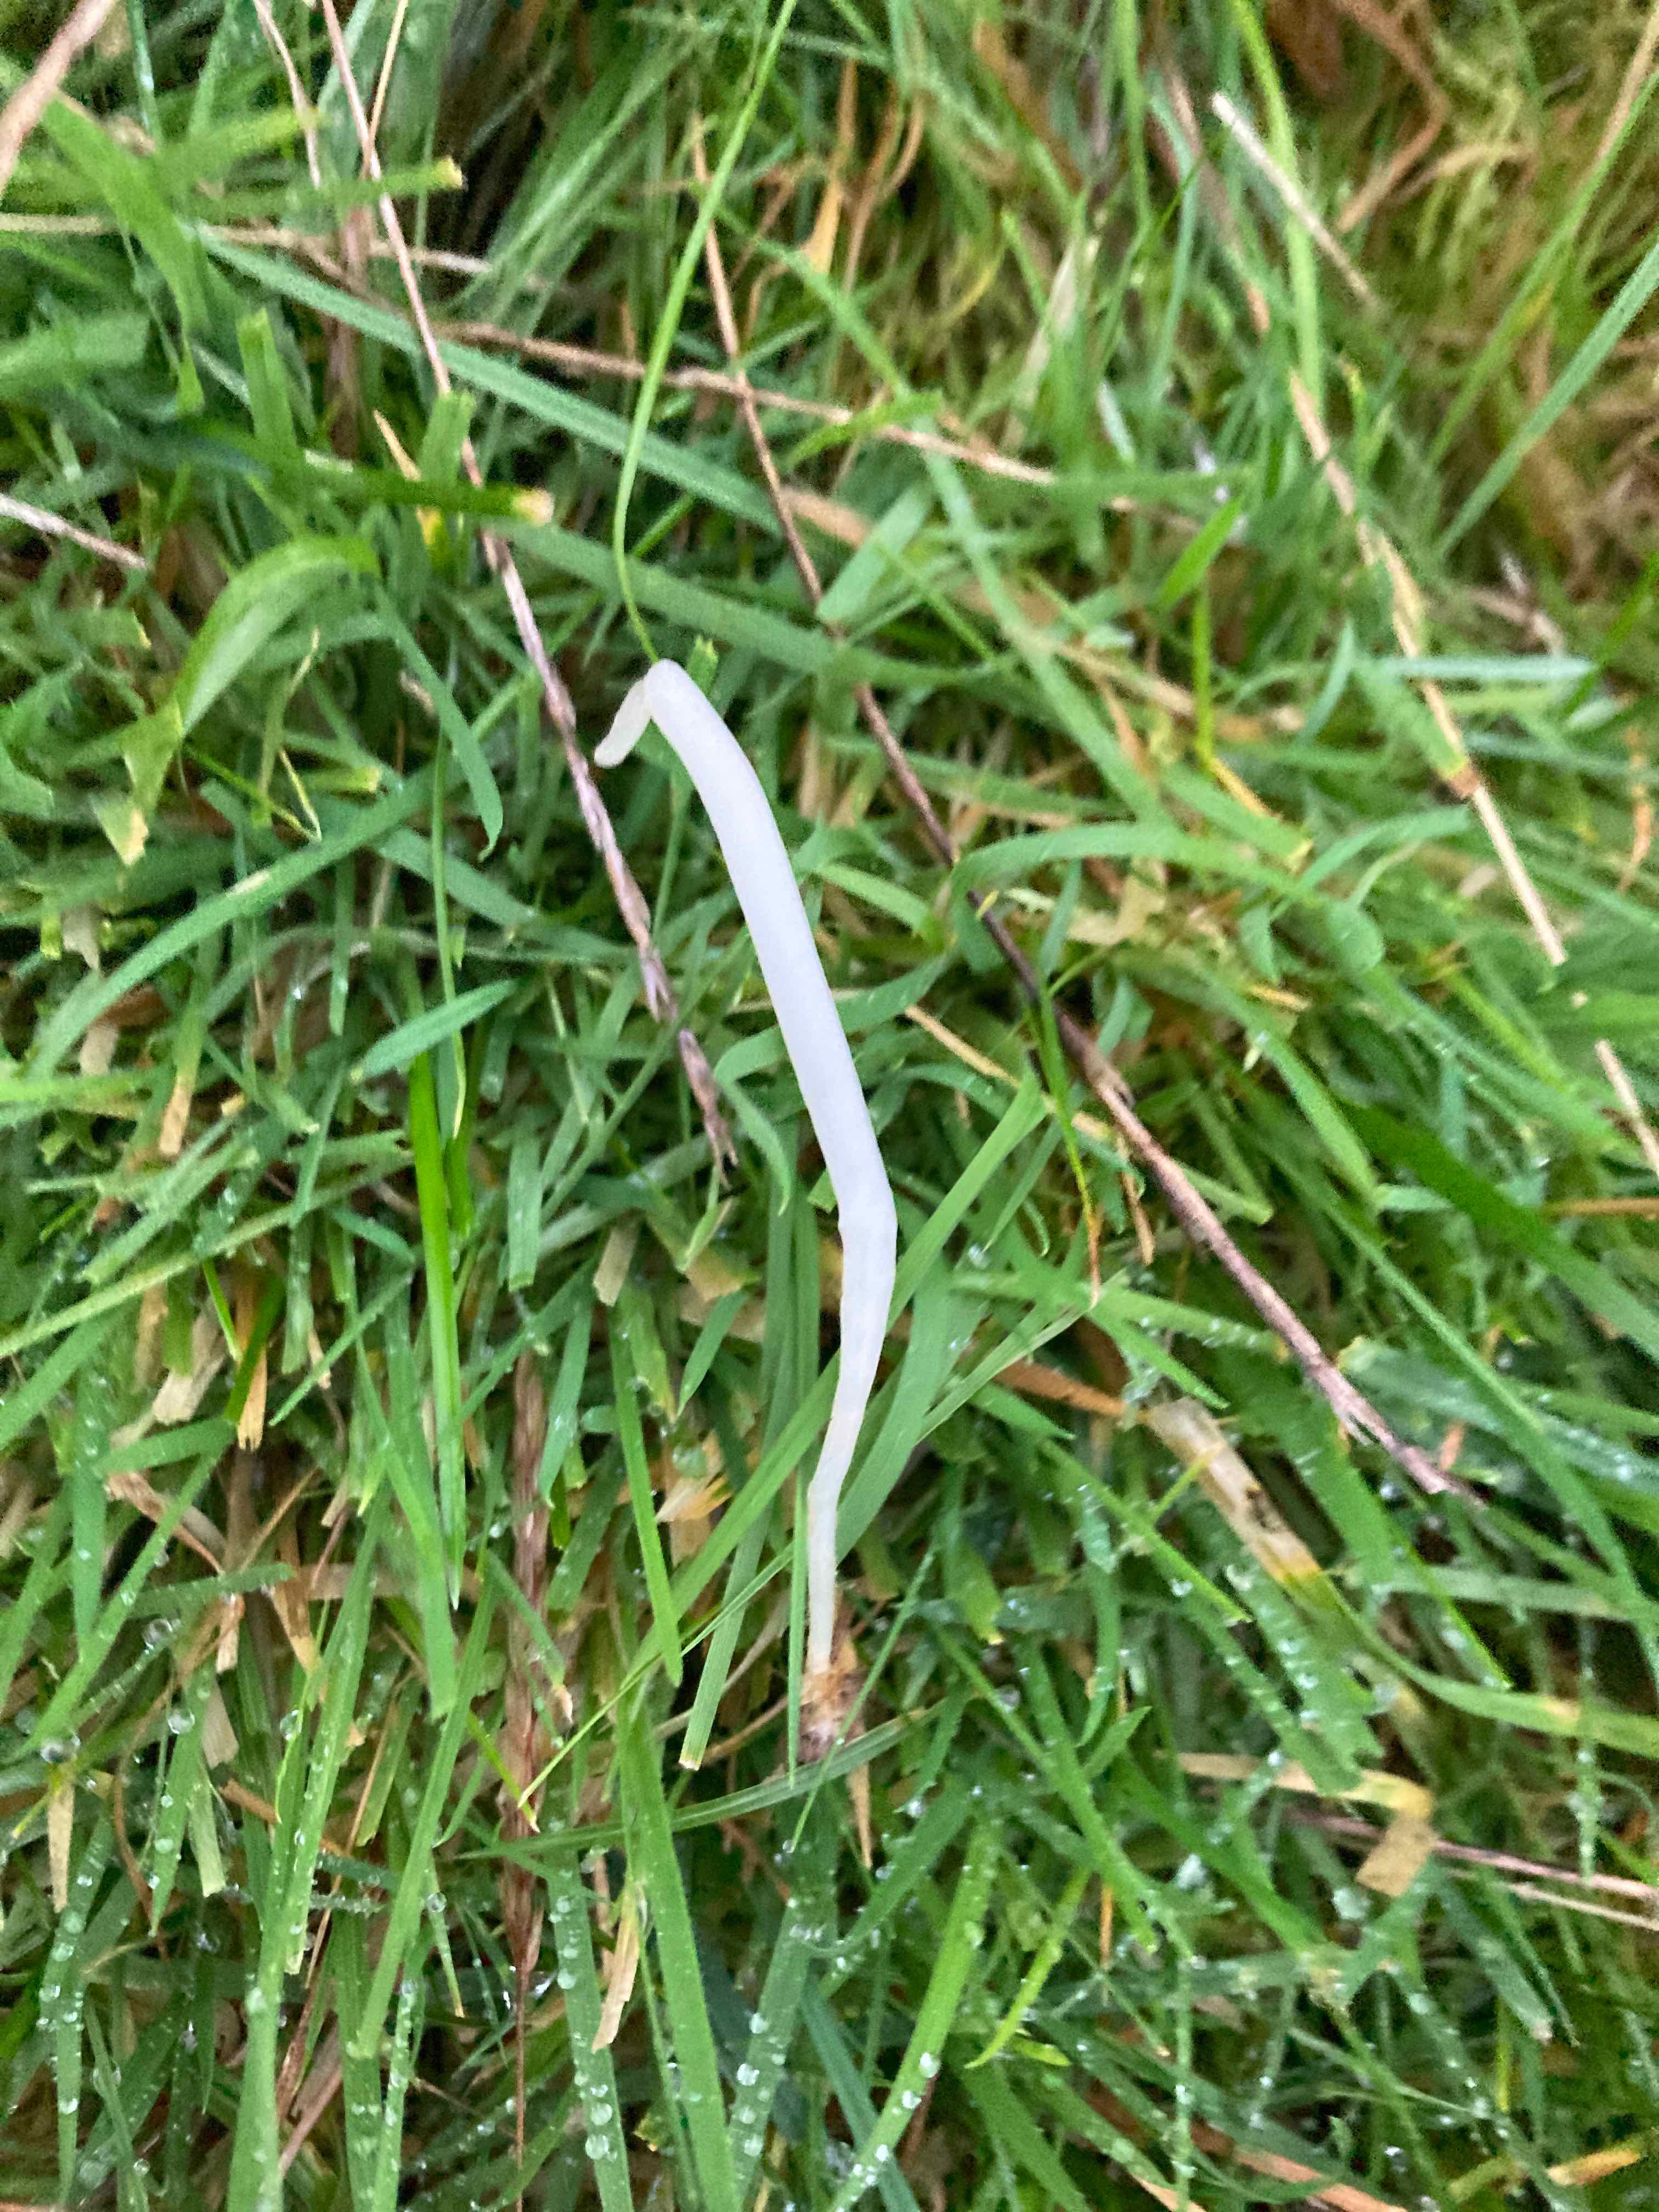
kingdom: Fungi
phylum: Basidiomycota
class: Agaricomycetes
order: Agaricales
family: Clavariaceae
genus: Clavaria
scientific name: Clavaria falcata
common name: hvid køllesvamp
